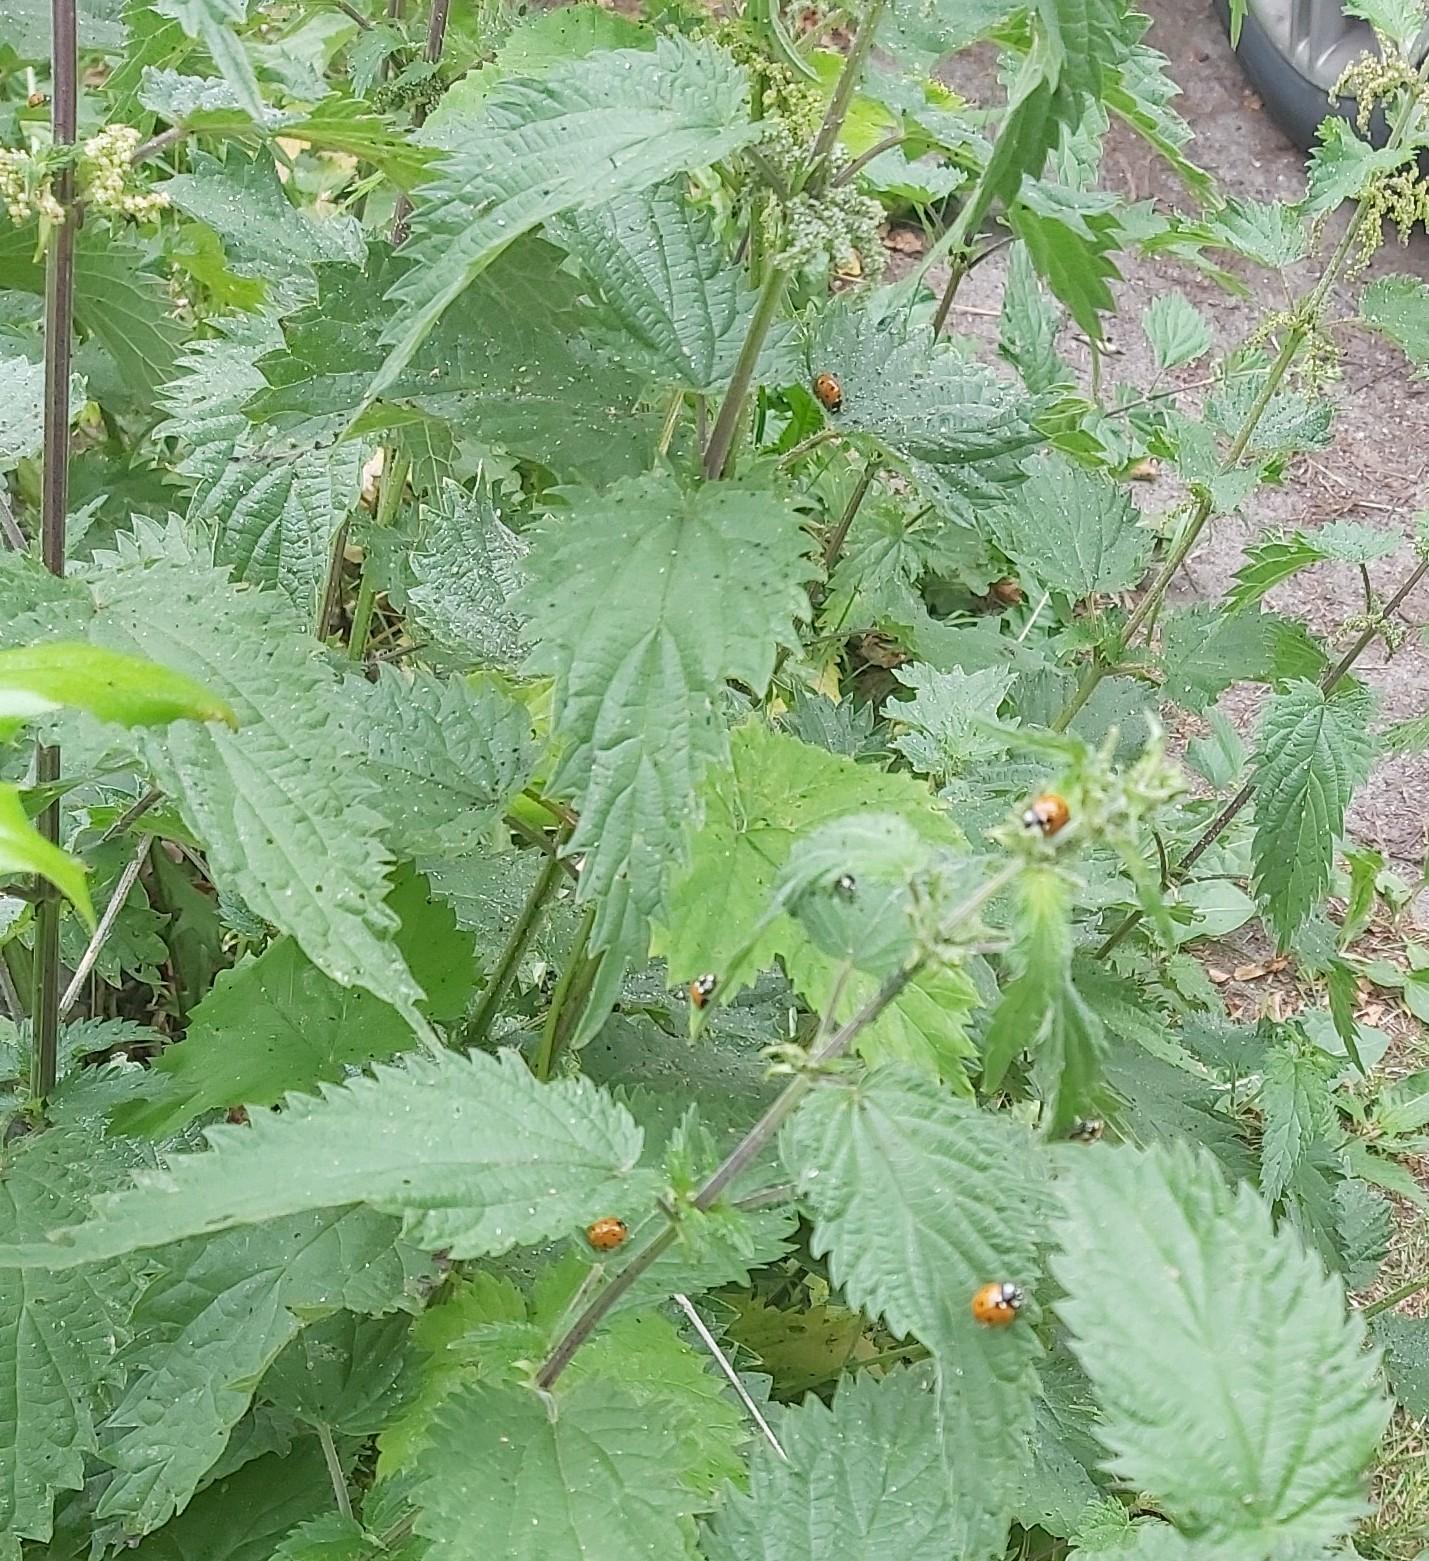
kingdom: Animalia
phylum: Arthropoda
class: Insecta
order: Coleoptera
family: Coccinellidae
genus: Coccinella
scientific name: Coccinella septempunctata
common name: Syvplettet mariehøne
